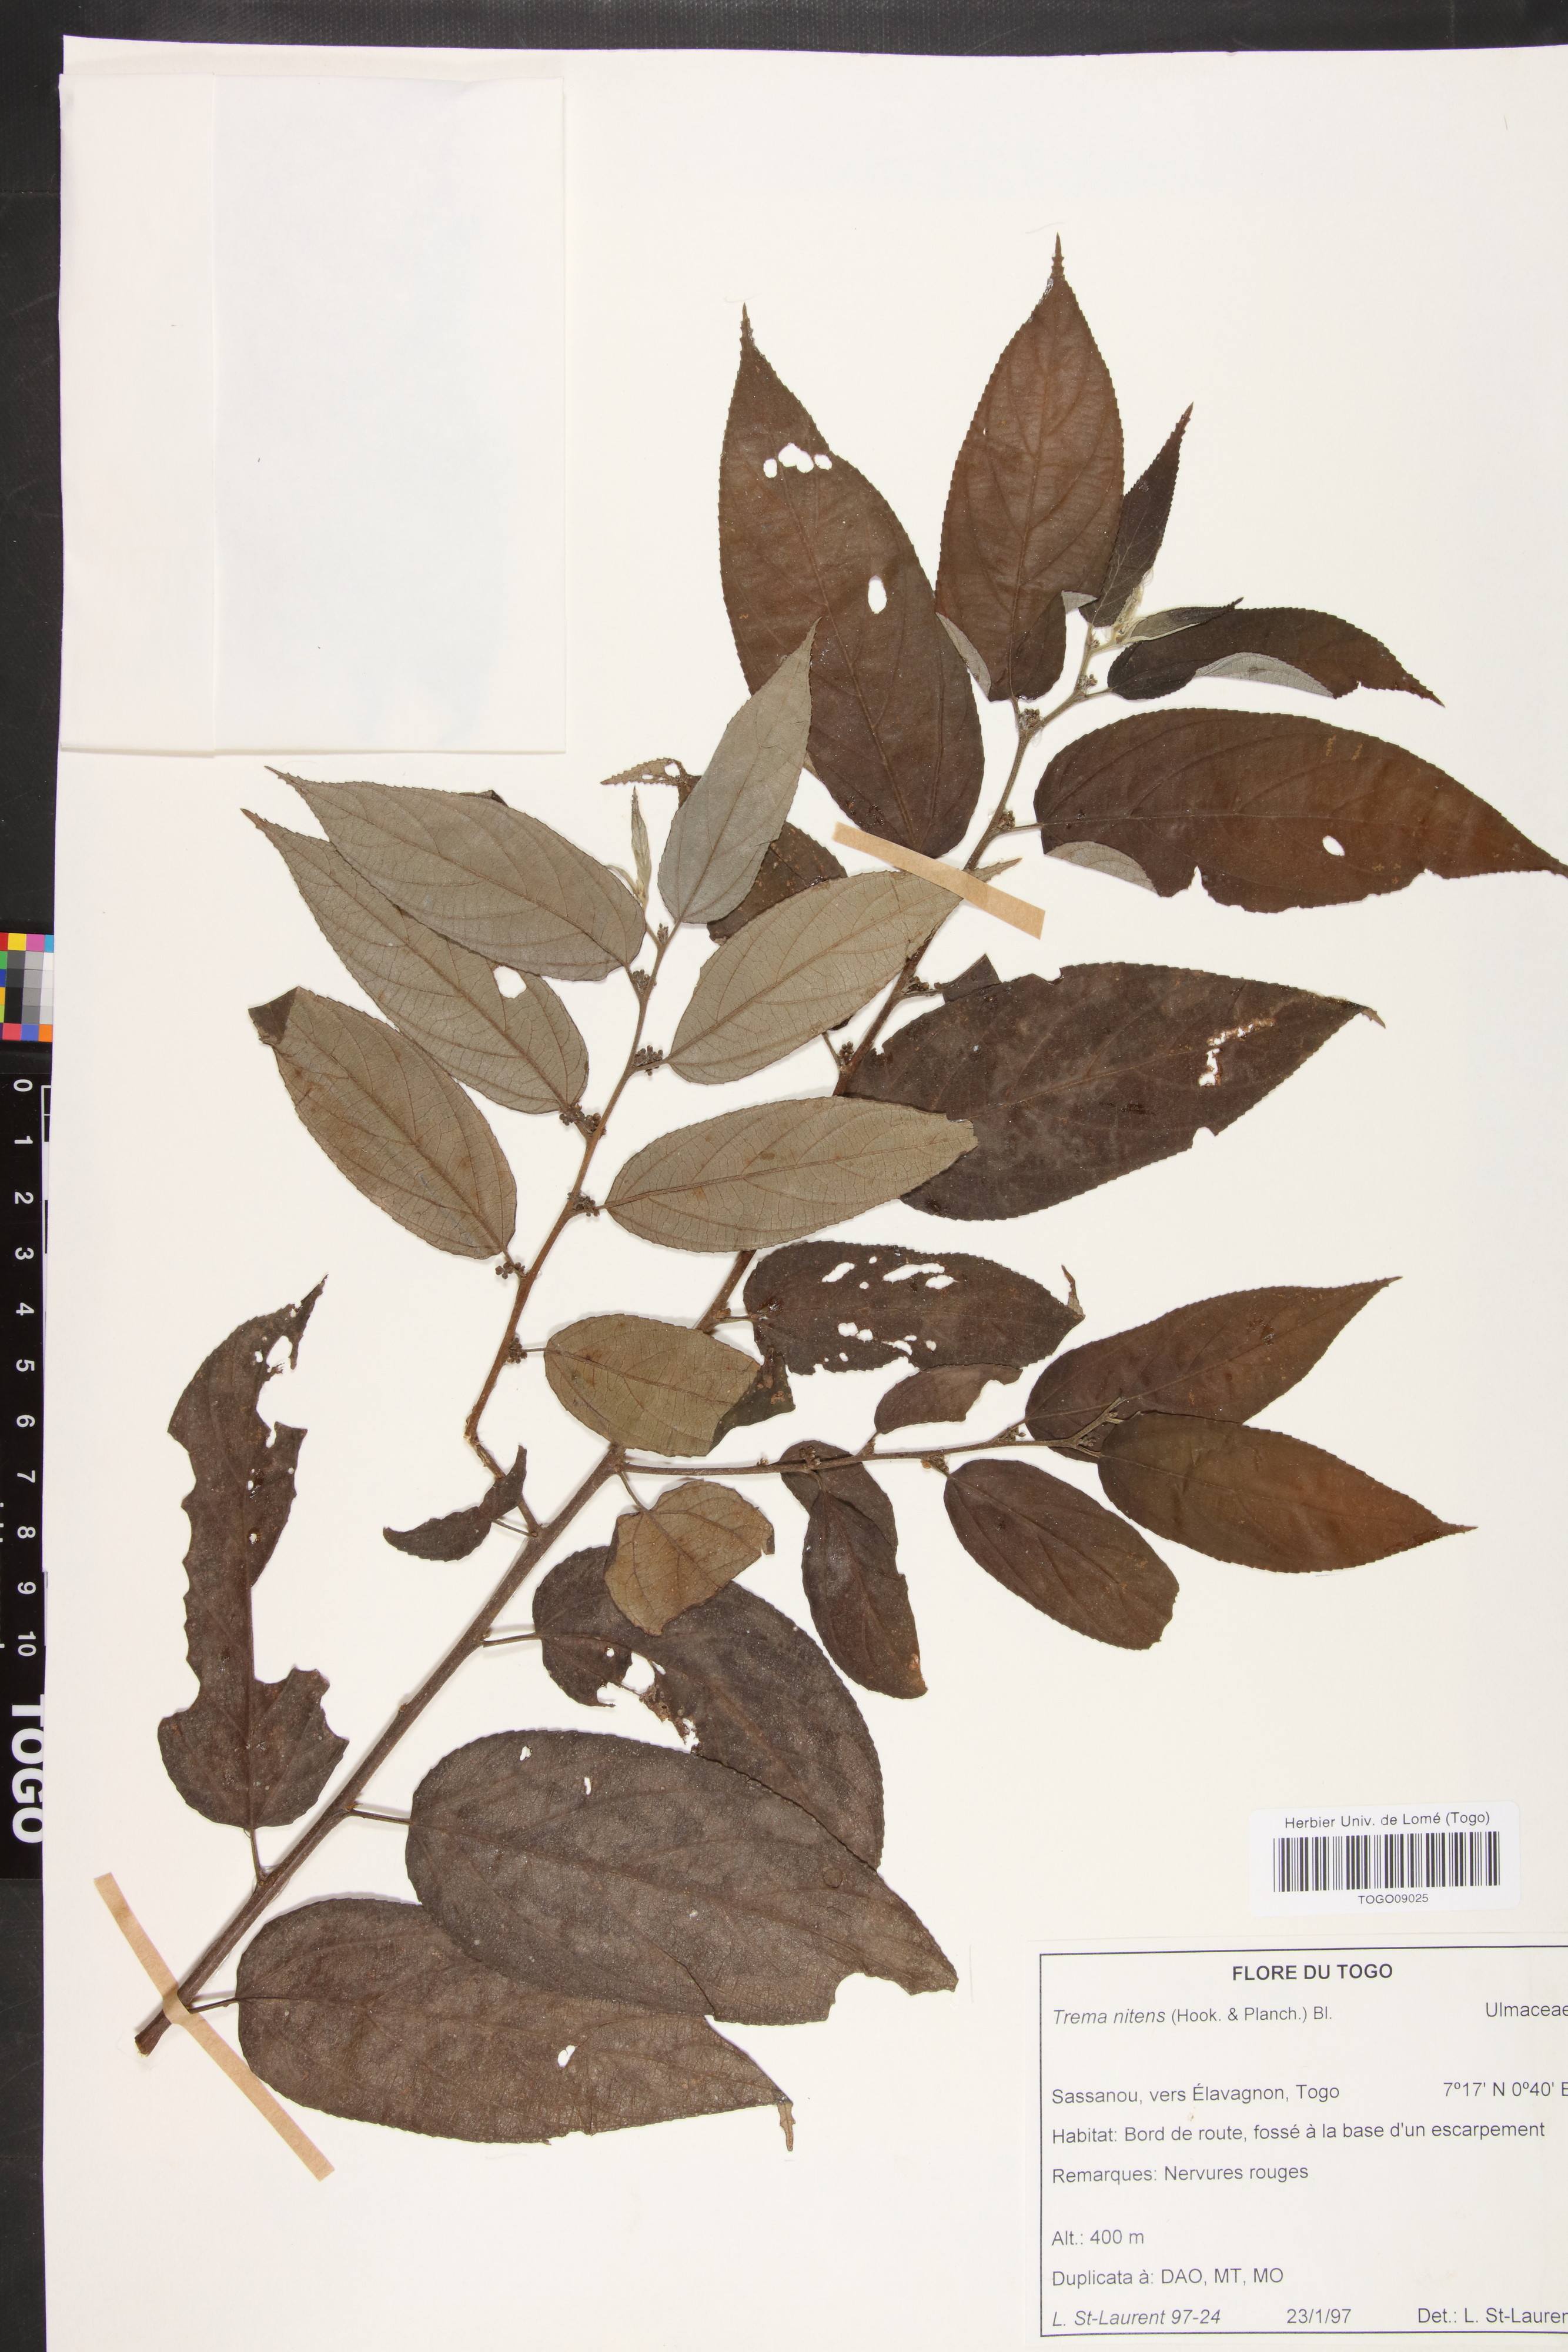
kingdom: Plantae
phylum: Tracheophyta
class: Magnoliopsida
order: Rosales
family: Cannabaceae
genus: Trema
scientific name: Trema orientale
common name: Indian charcoal tree
